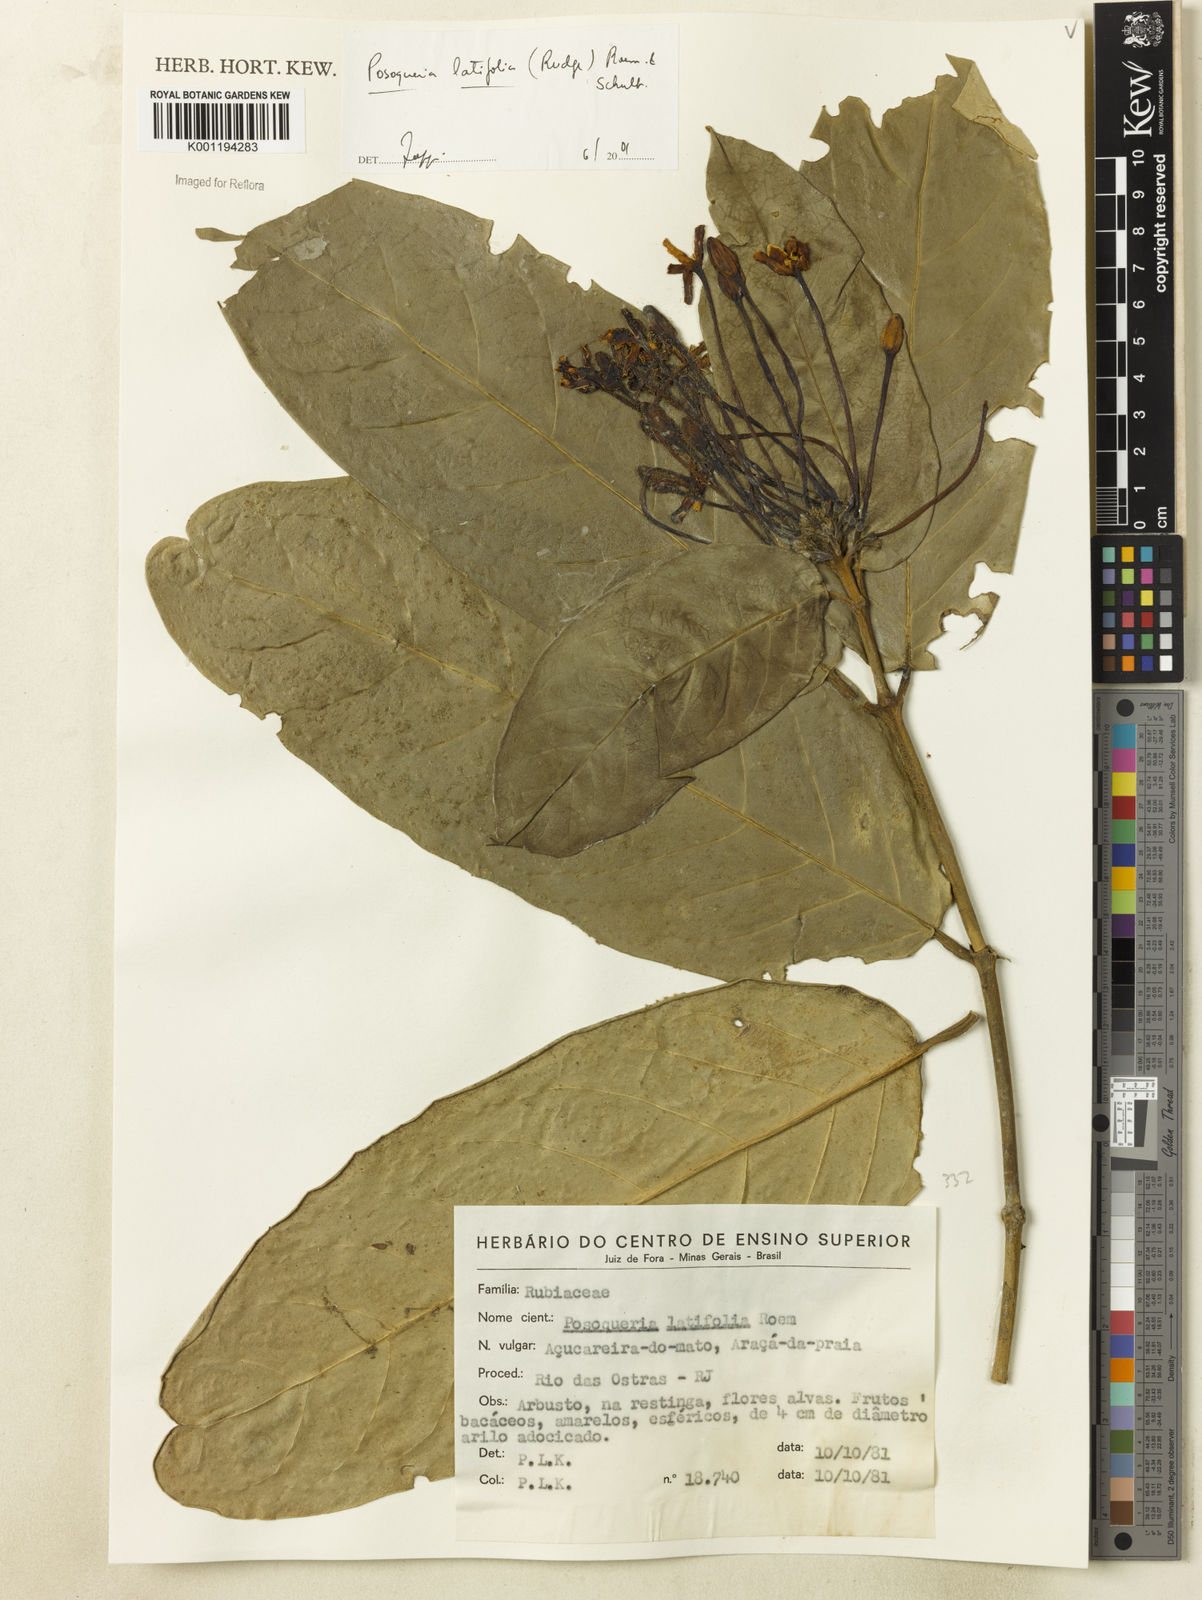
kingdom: Plantae
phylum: Tracheophyta
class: Magnoliopsida
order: Gentianales
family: Rubiaceae
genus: Posoqueria
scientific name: Posoqueria latifolia
